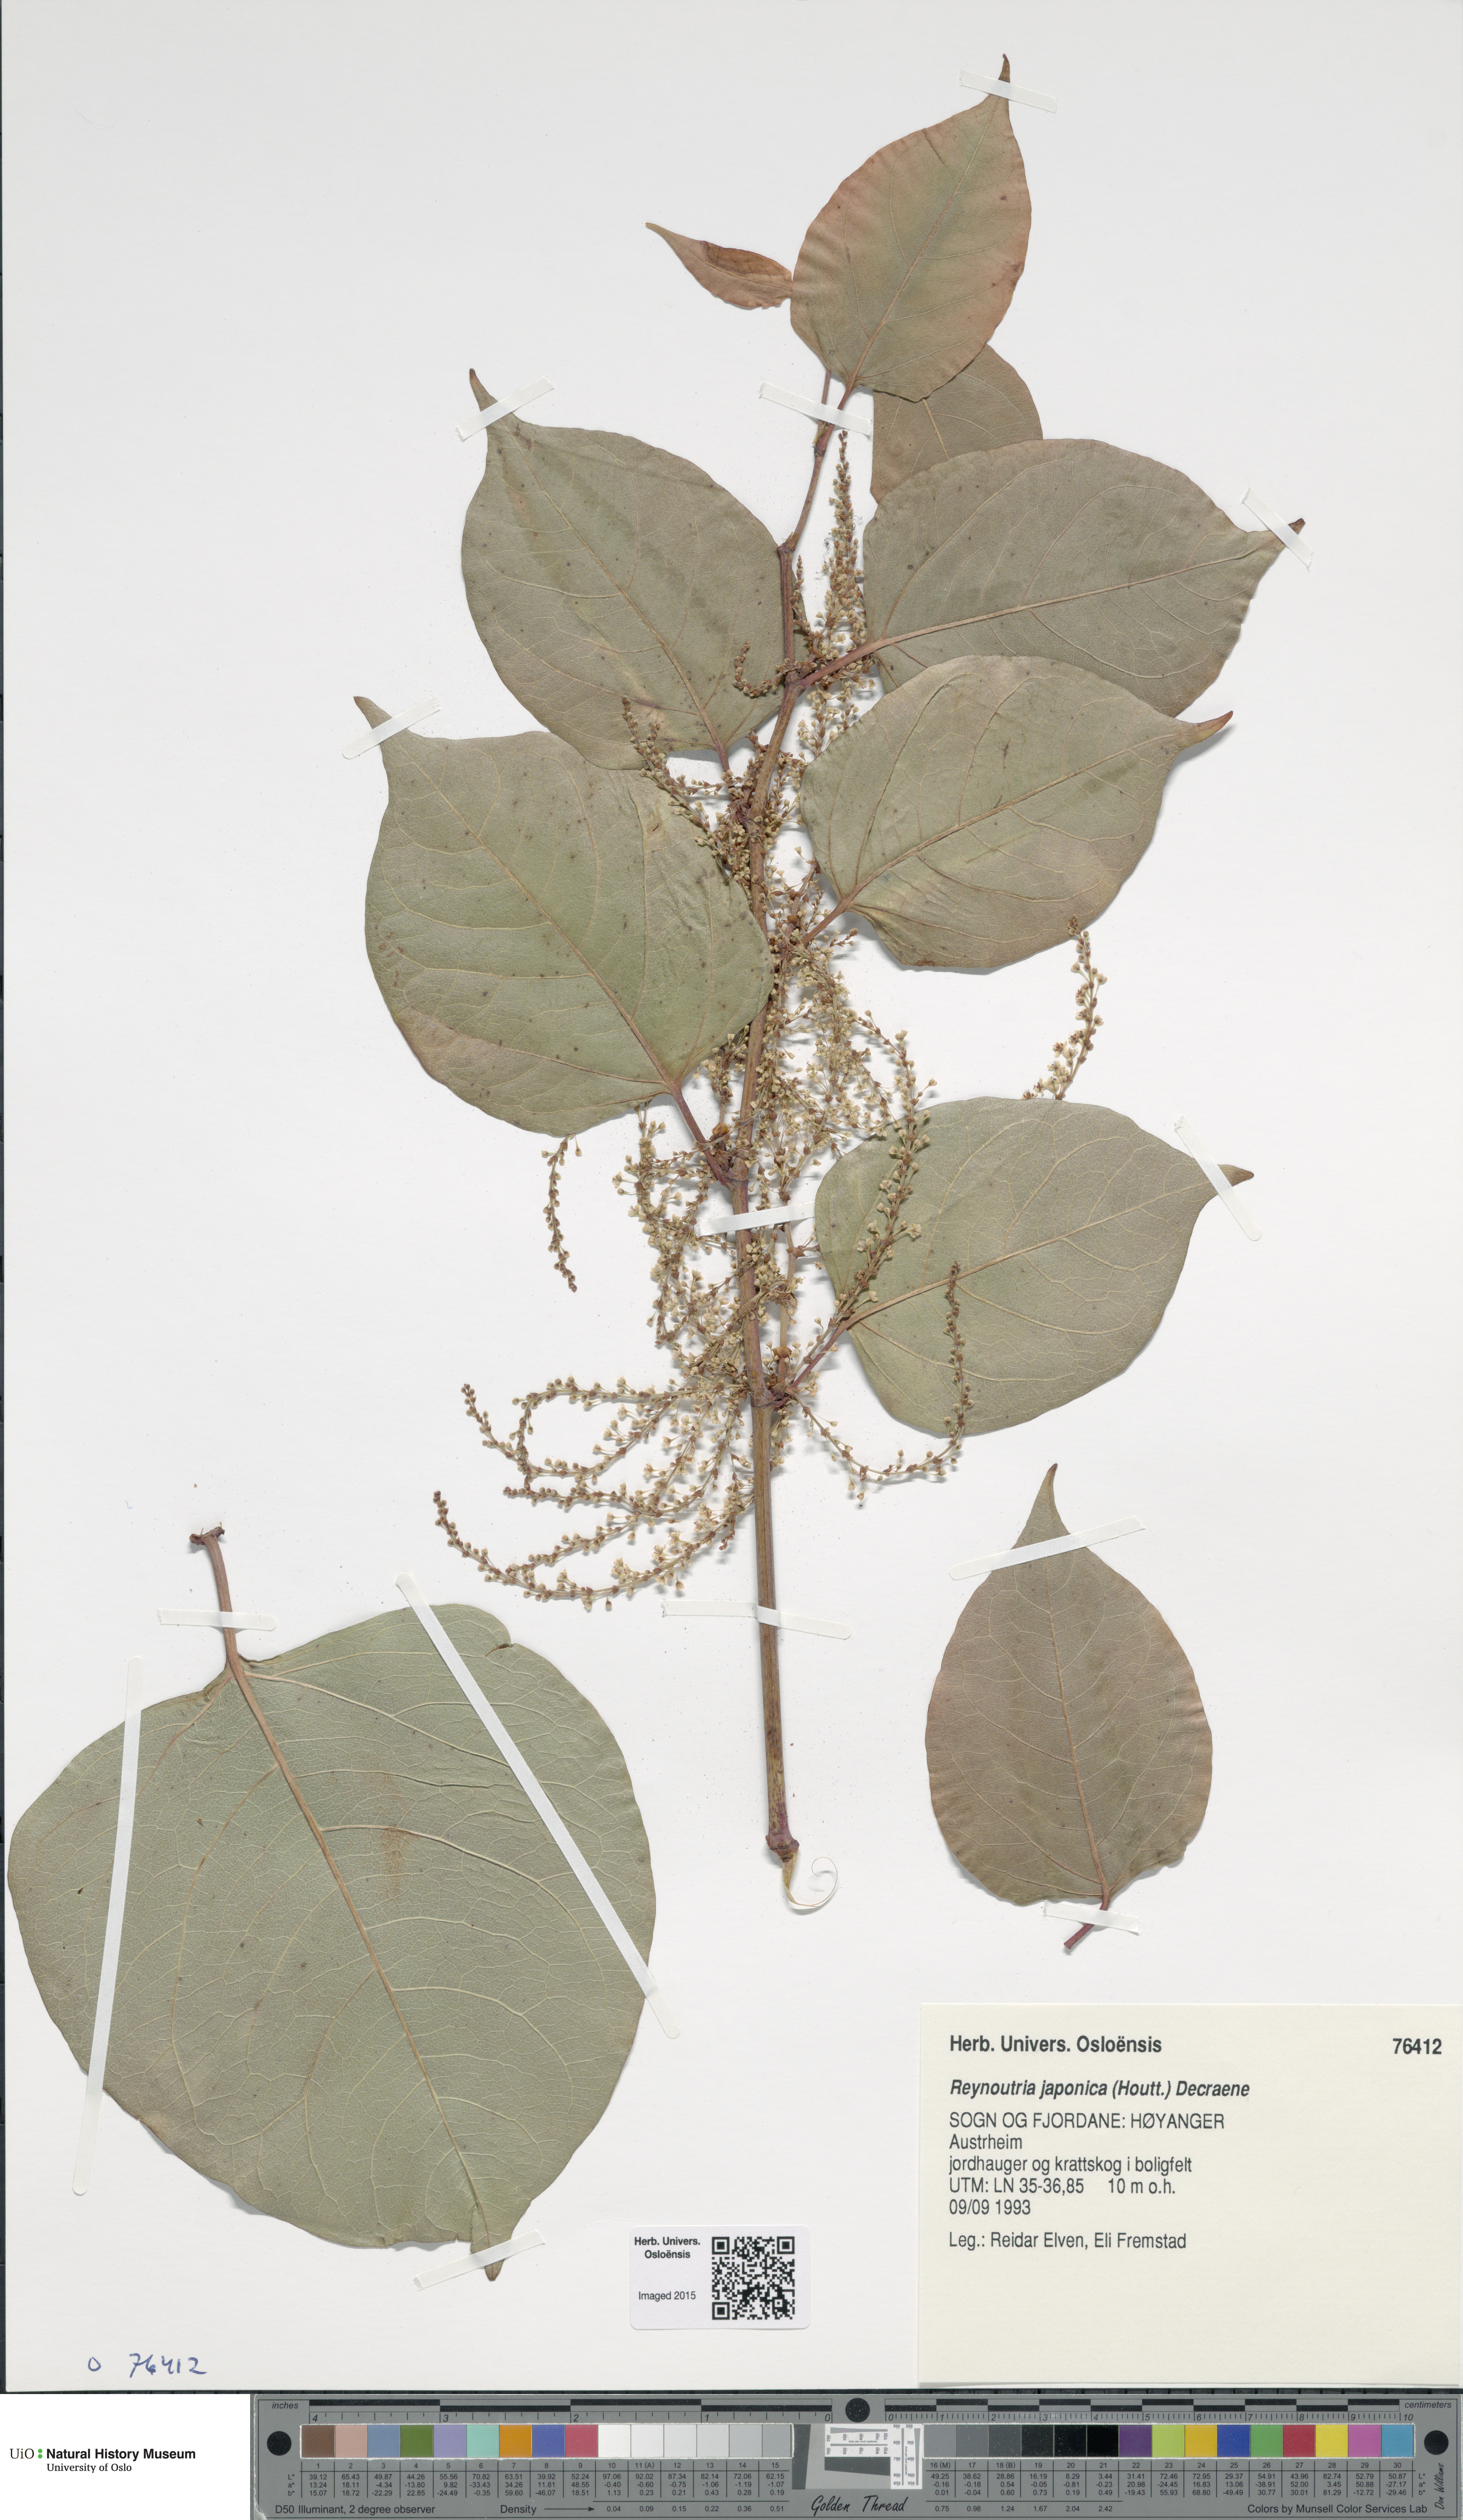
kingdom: Plantae
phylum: Tracheophyta
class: Magnoliopsida
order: Caryophyllales
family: Polygonaceae
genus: Reynoutria
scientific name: Reynoutria japonica
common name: Japanese knotweed
